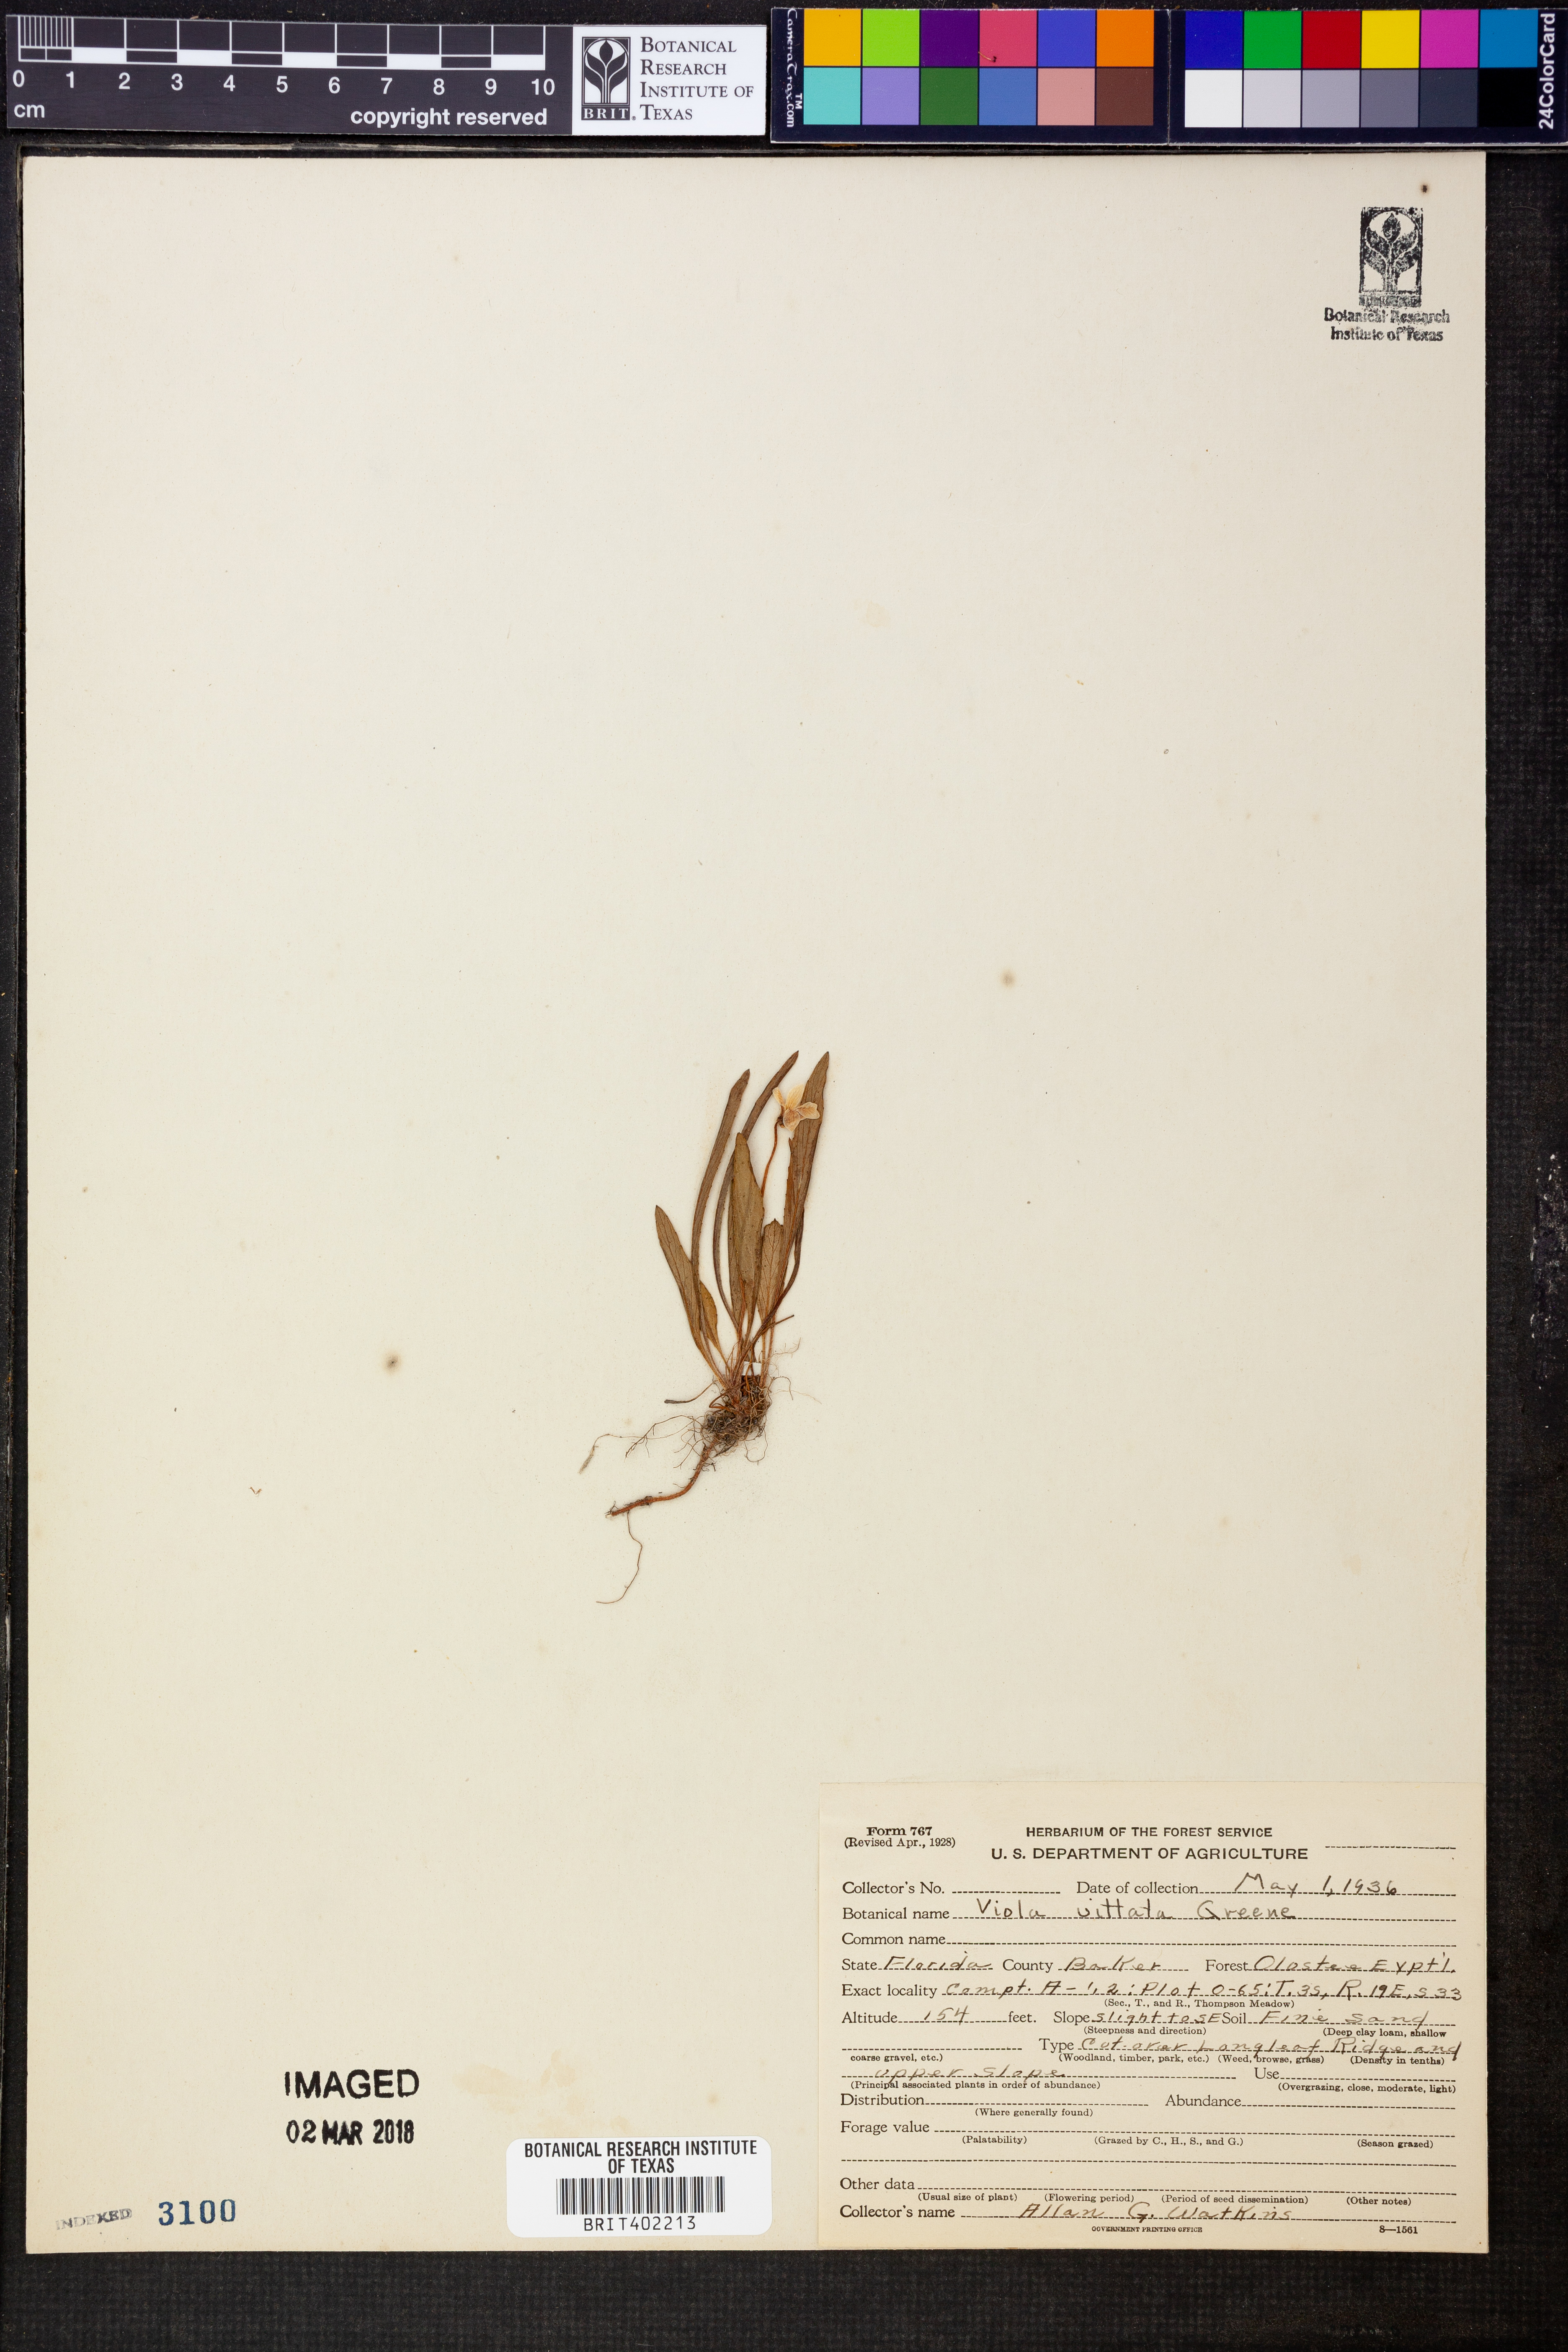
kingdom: Plantae
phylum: Tracheophyta
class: Magnoliopsida
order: Malpighiales
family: Violaceae
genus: Viola
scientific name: Viola vittata
